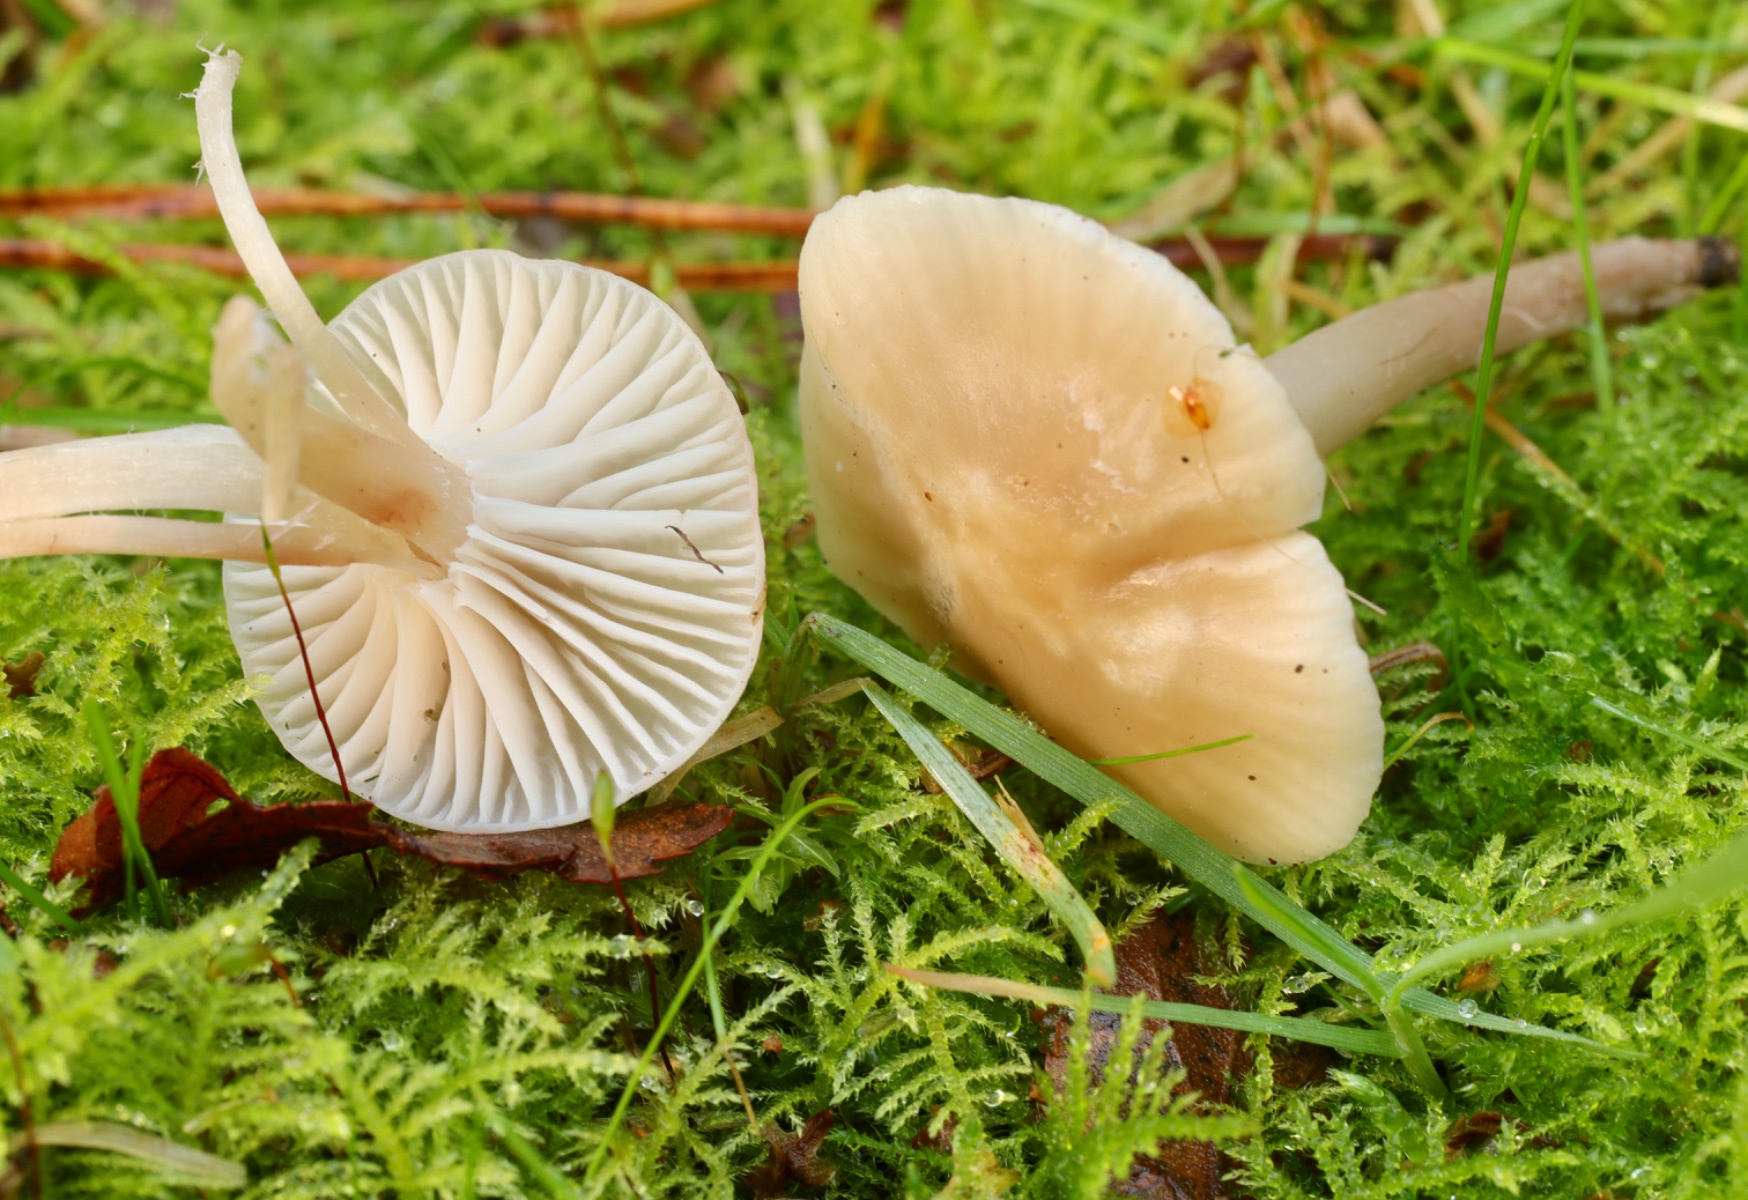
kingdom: Fungi
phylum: Basidiomycota
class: Agaricomycetes
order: Agaricales
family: Hygrophoraceae
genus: Cuphophyllus
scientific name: Cuphophyllus virgineus
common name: isabella-vokshat
